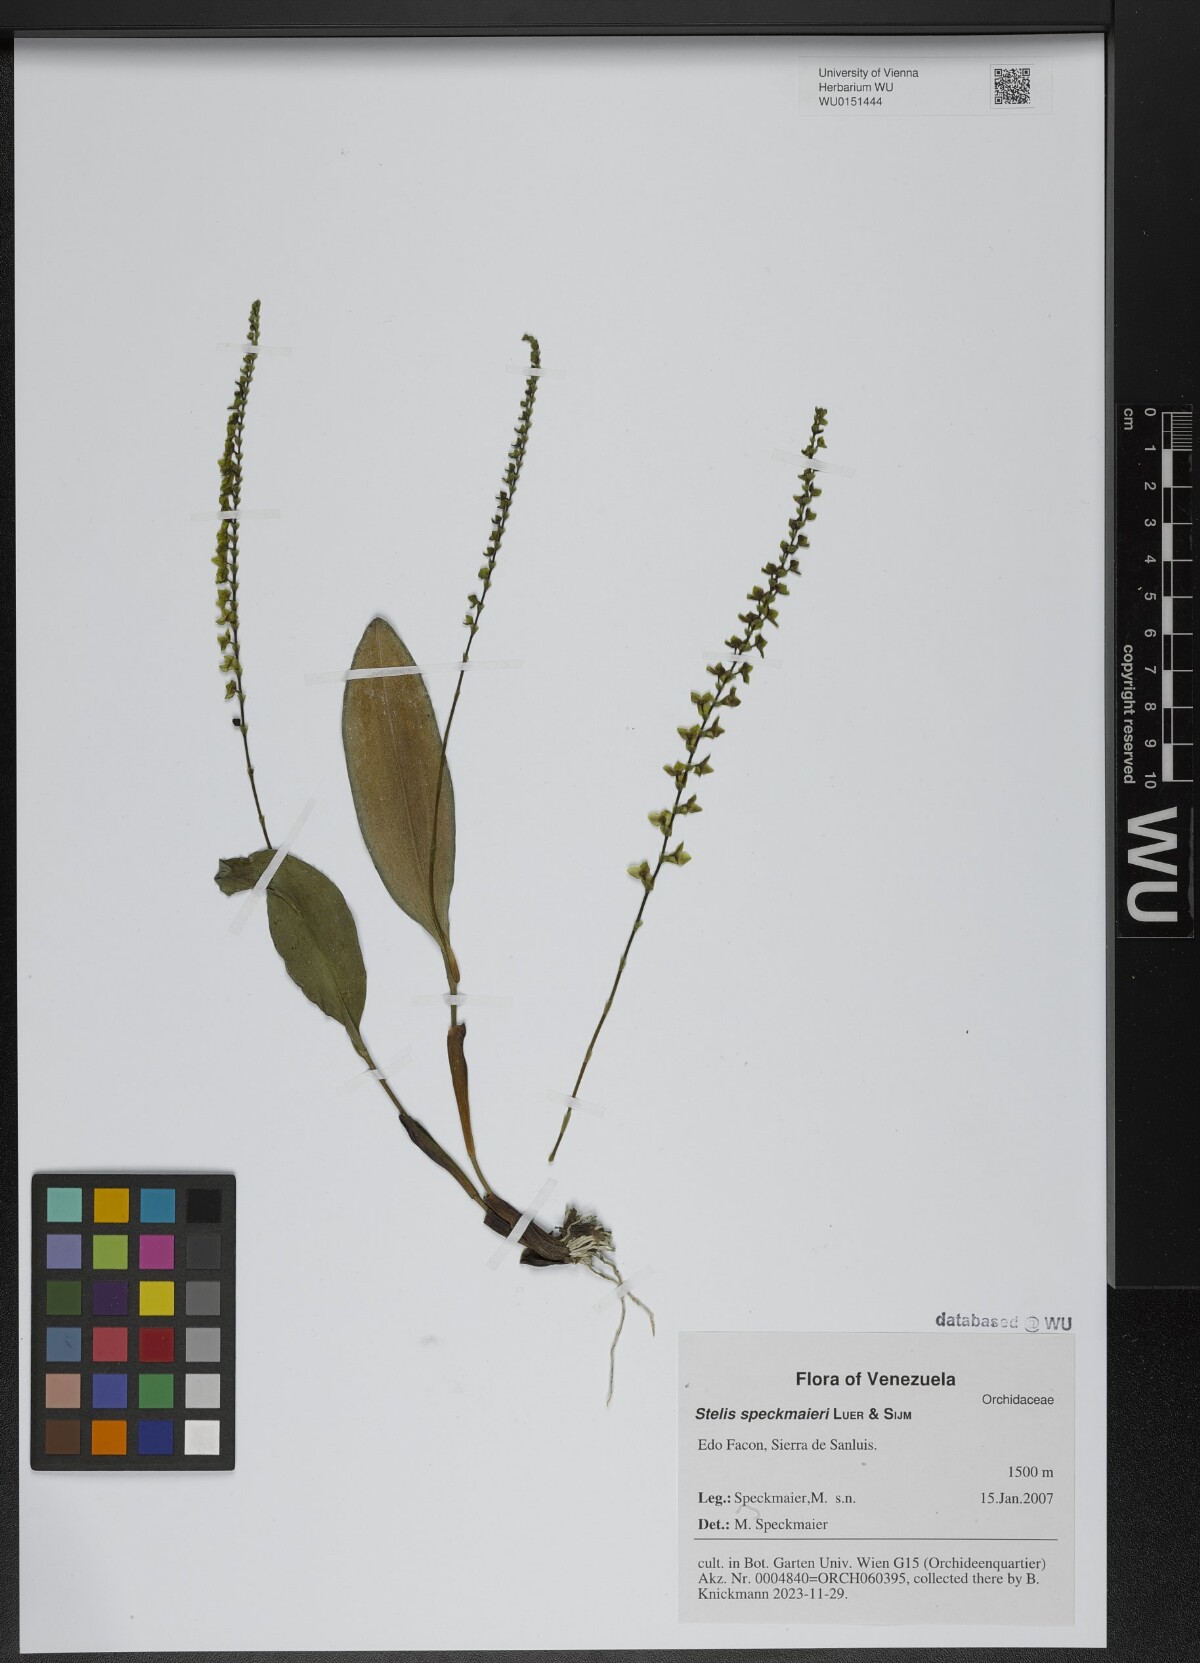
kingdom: Plantae
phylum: Tracheophyta
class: Liliopsida
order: Asparagales
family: Orchidaceae
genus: Stelis
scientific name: Stelis speckmaieri
